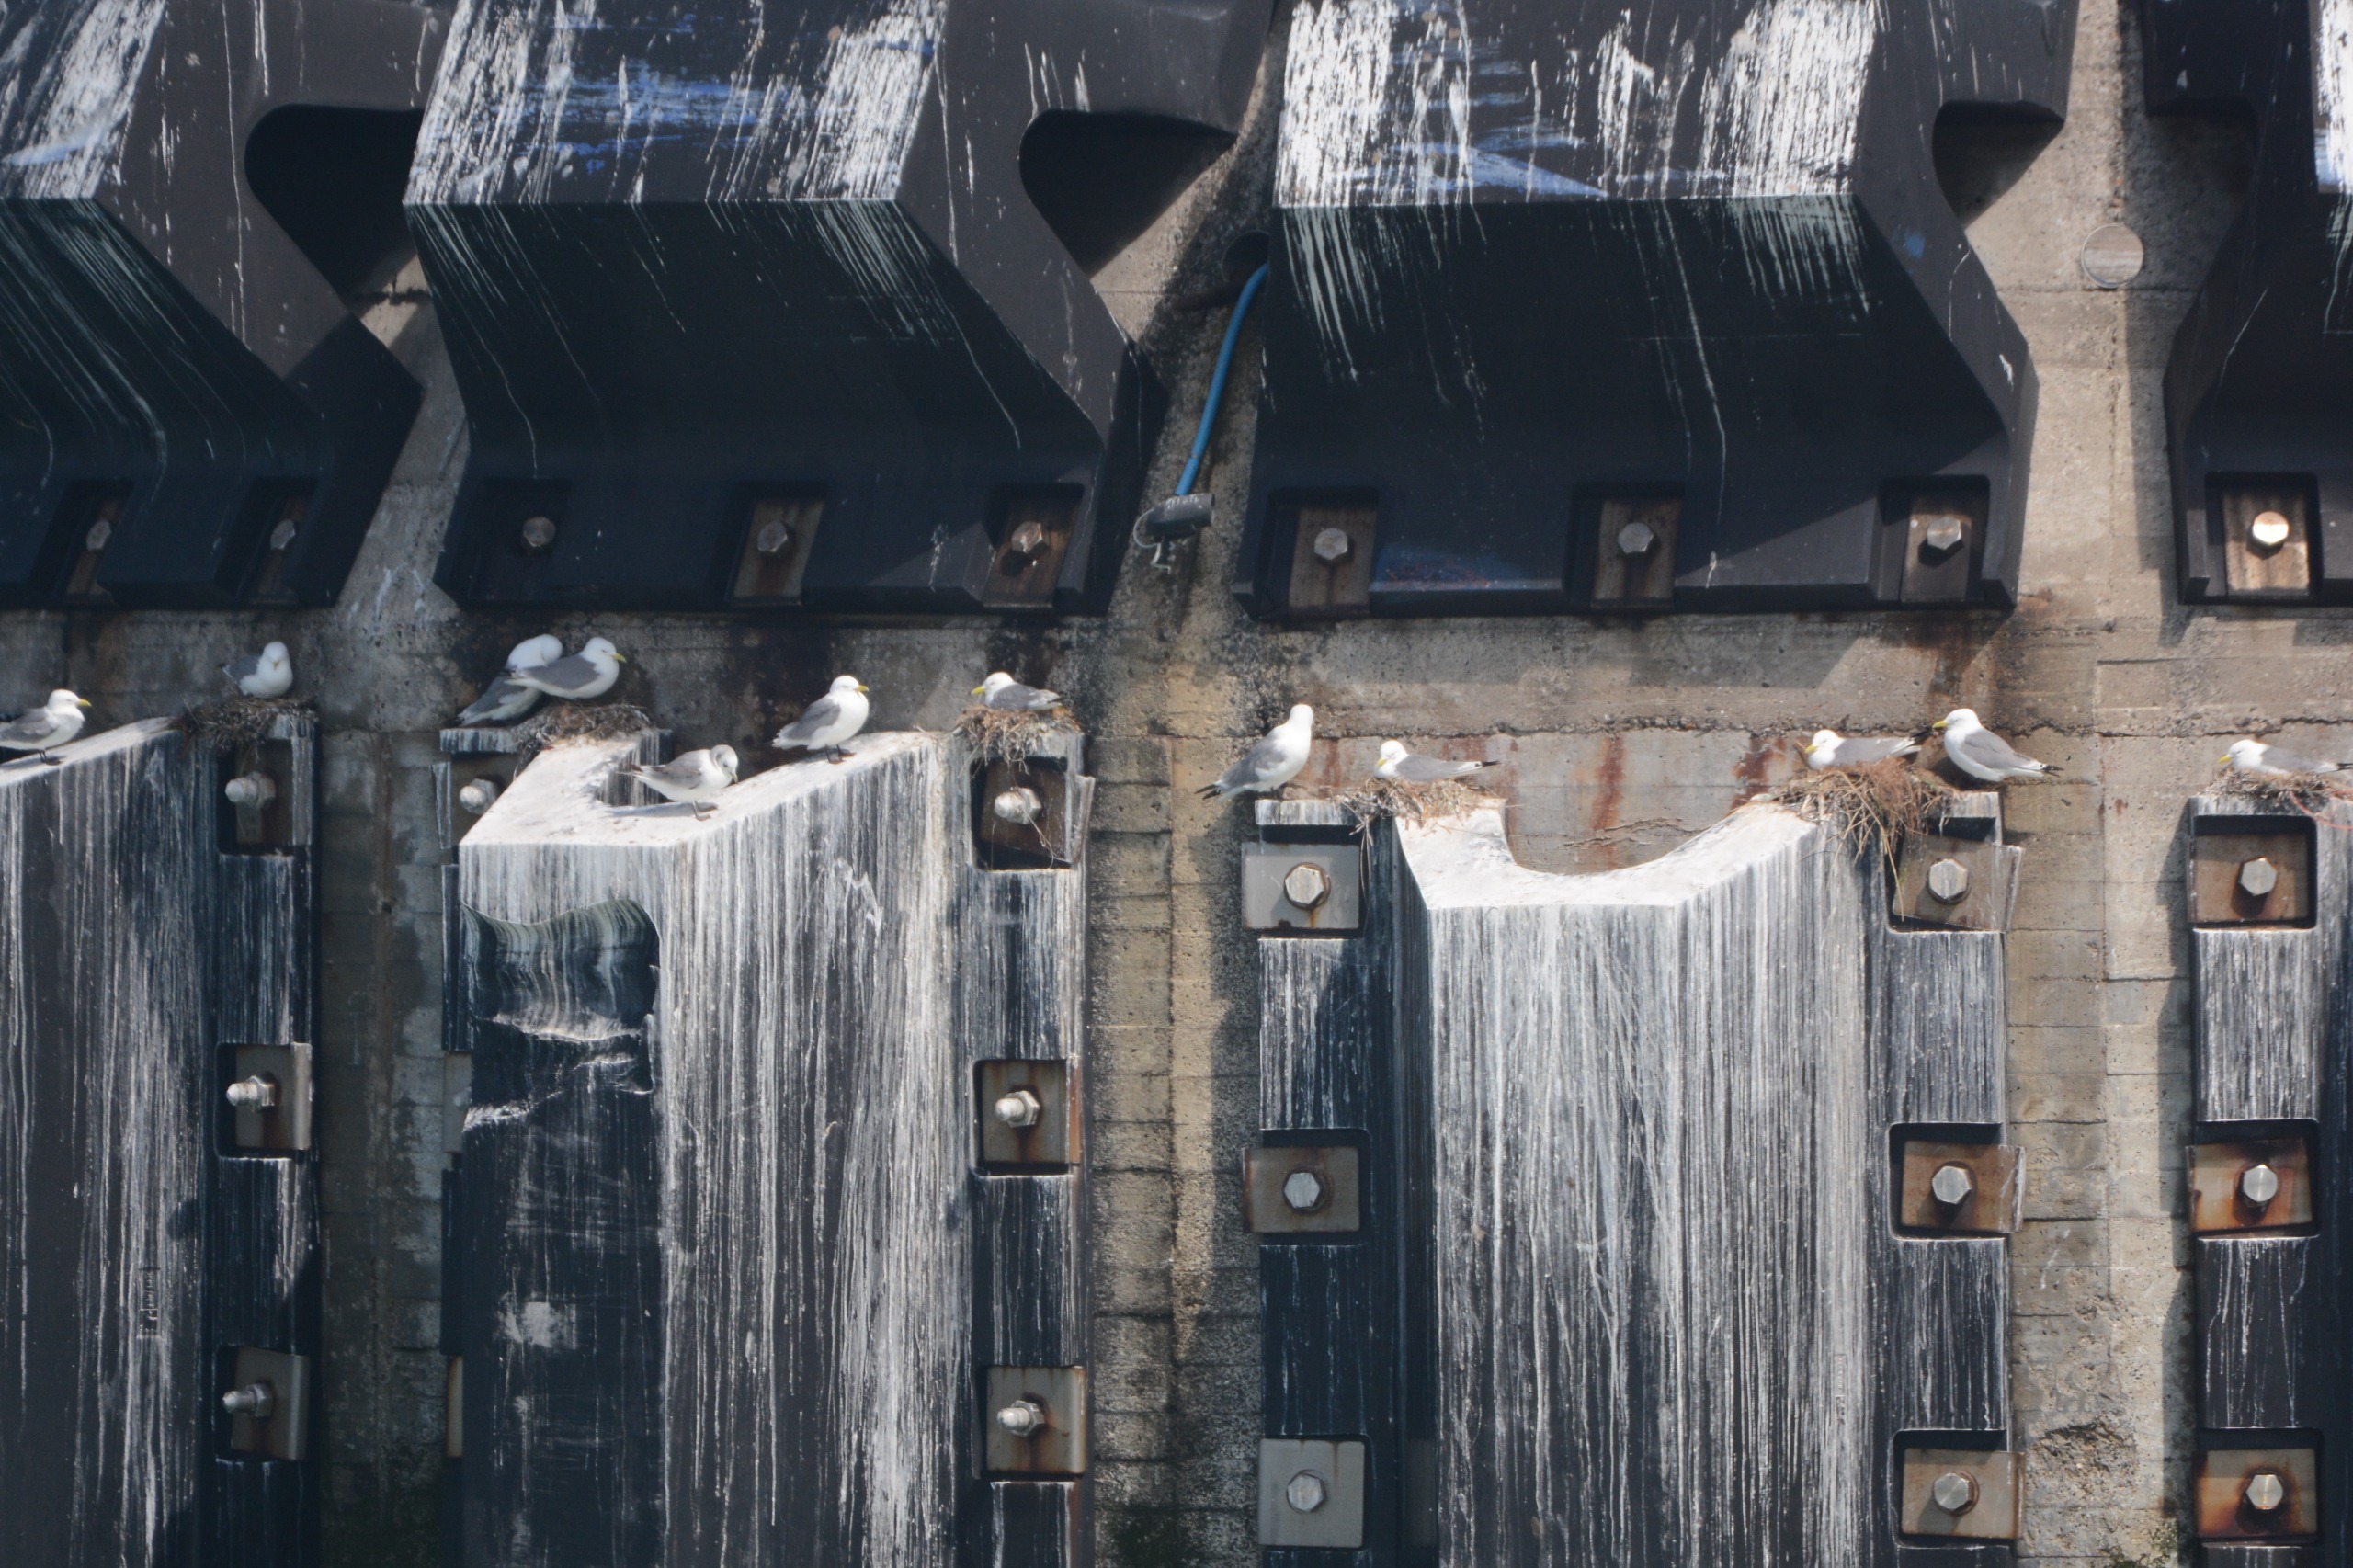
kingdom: Animalia
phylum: Chordata
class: Aves
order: Charadriiformes
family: Laridae
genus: Rissa
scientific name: Rissa tridactyla
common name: Ride
